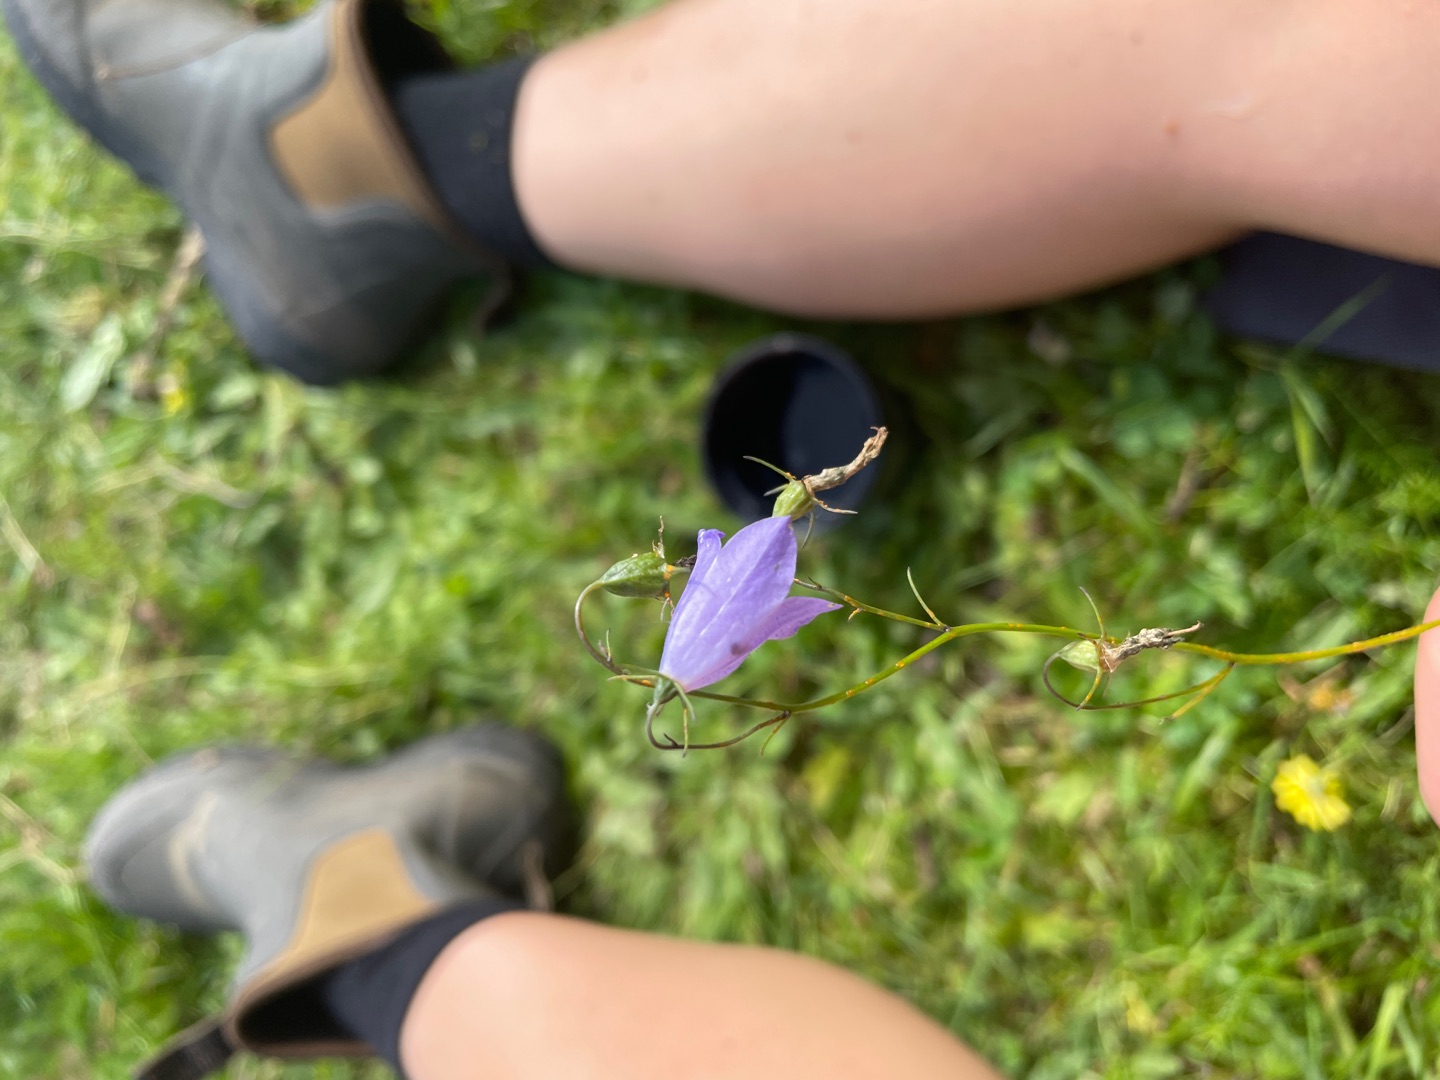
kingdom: Plantae
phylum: Tracheophyta
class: Magnoliopsida
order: Asterales
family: Campanulaceae
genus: Campanula
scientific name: Campanula rotundifolia
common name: Liden klokke
